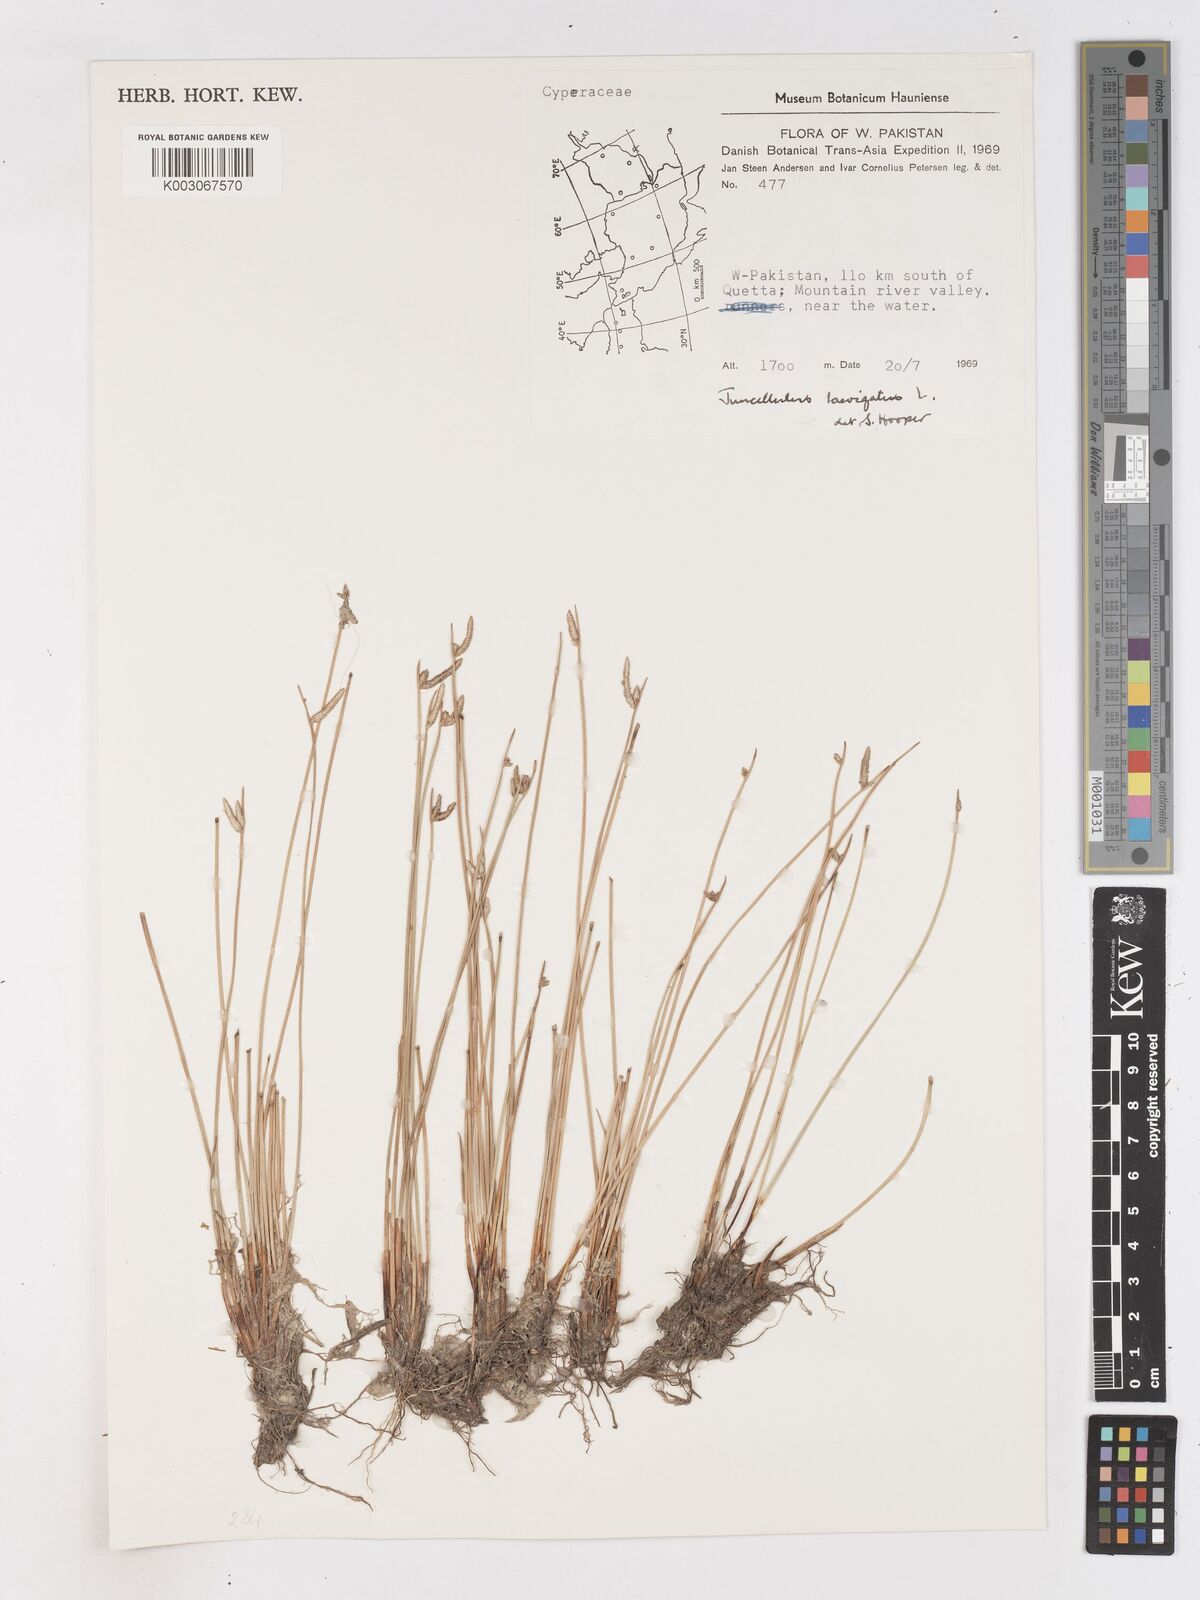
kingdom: Plantae
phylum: Tracheophyta
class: Liliopsida
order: Poales
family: Cyperaceae
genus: Cyperus
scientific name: Cyperus laevigatus
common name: Smooth flat sedge
